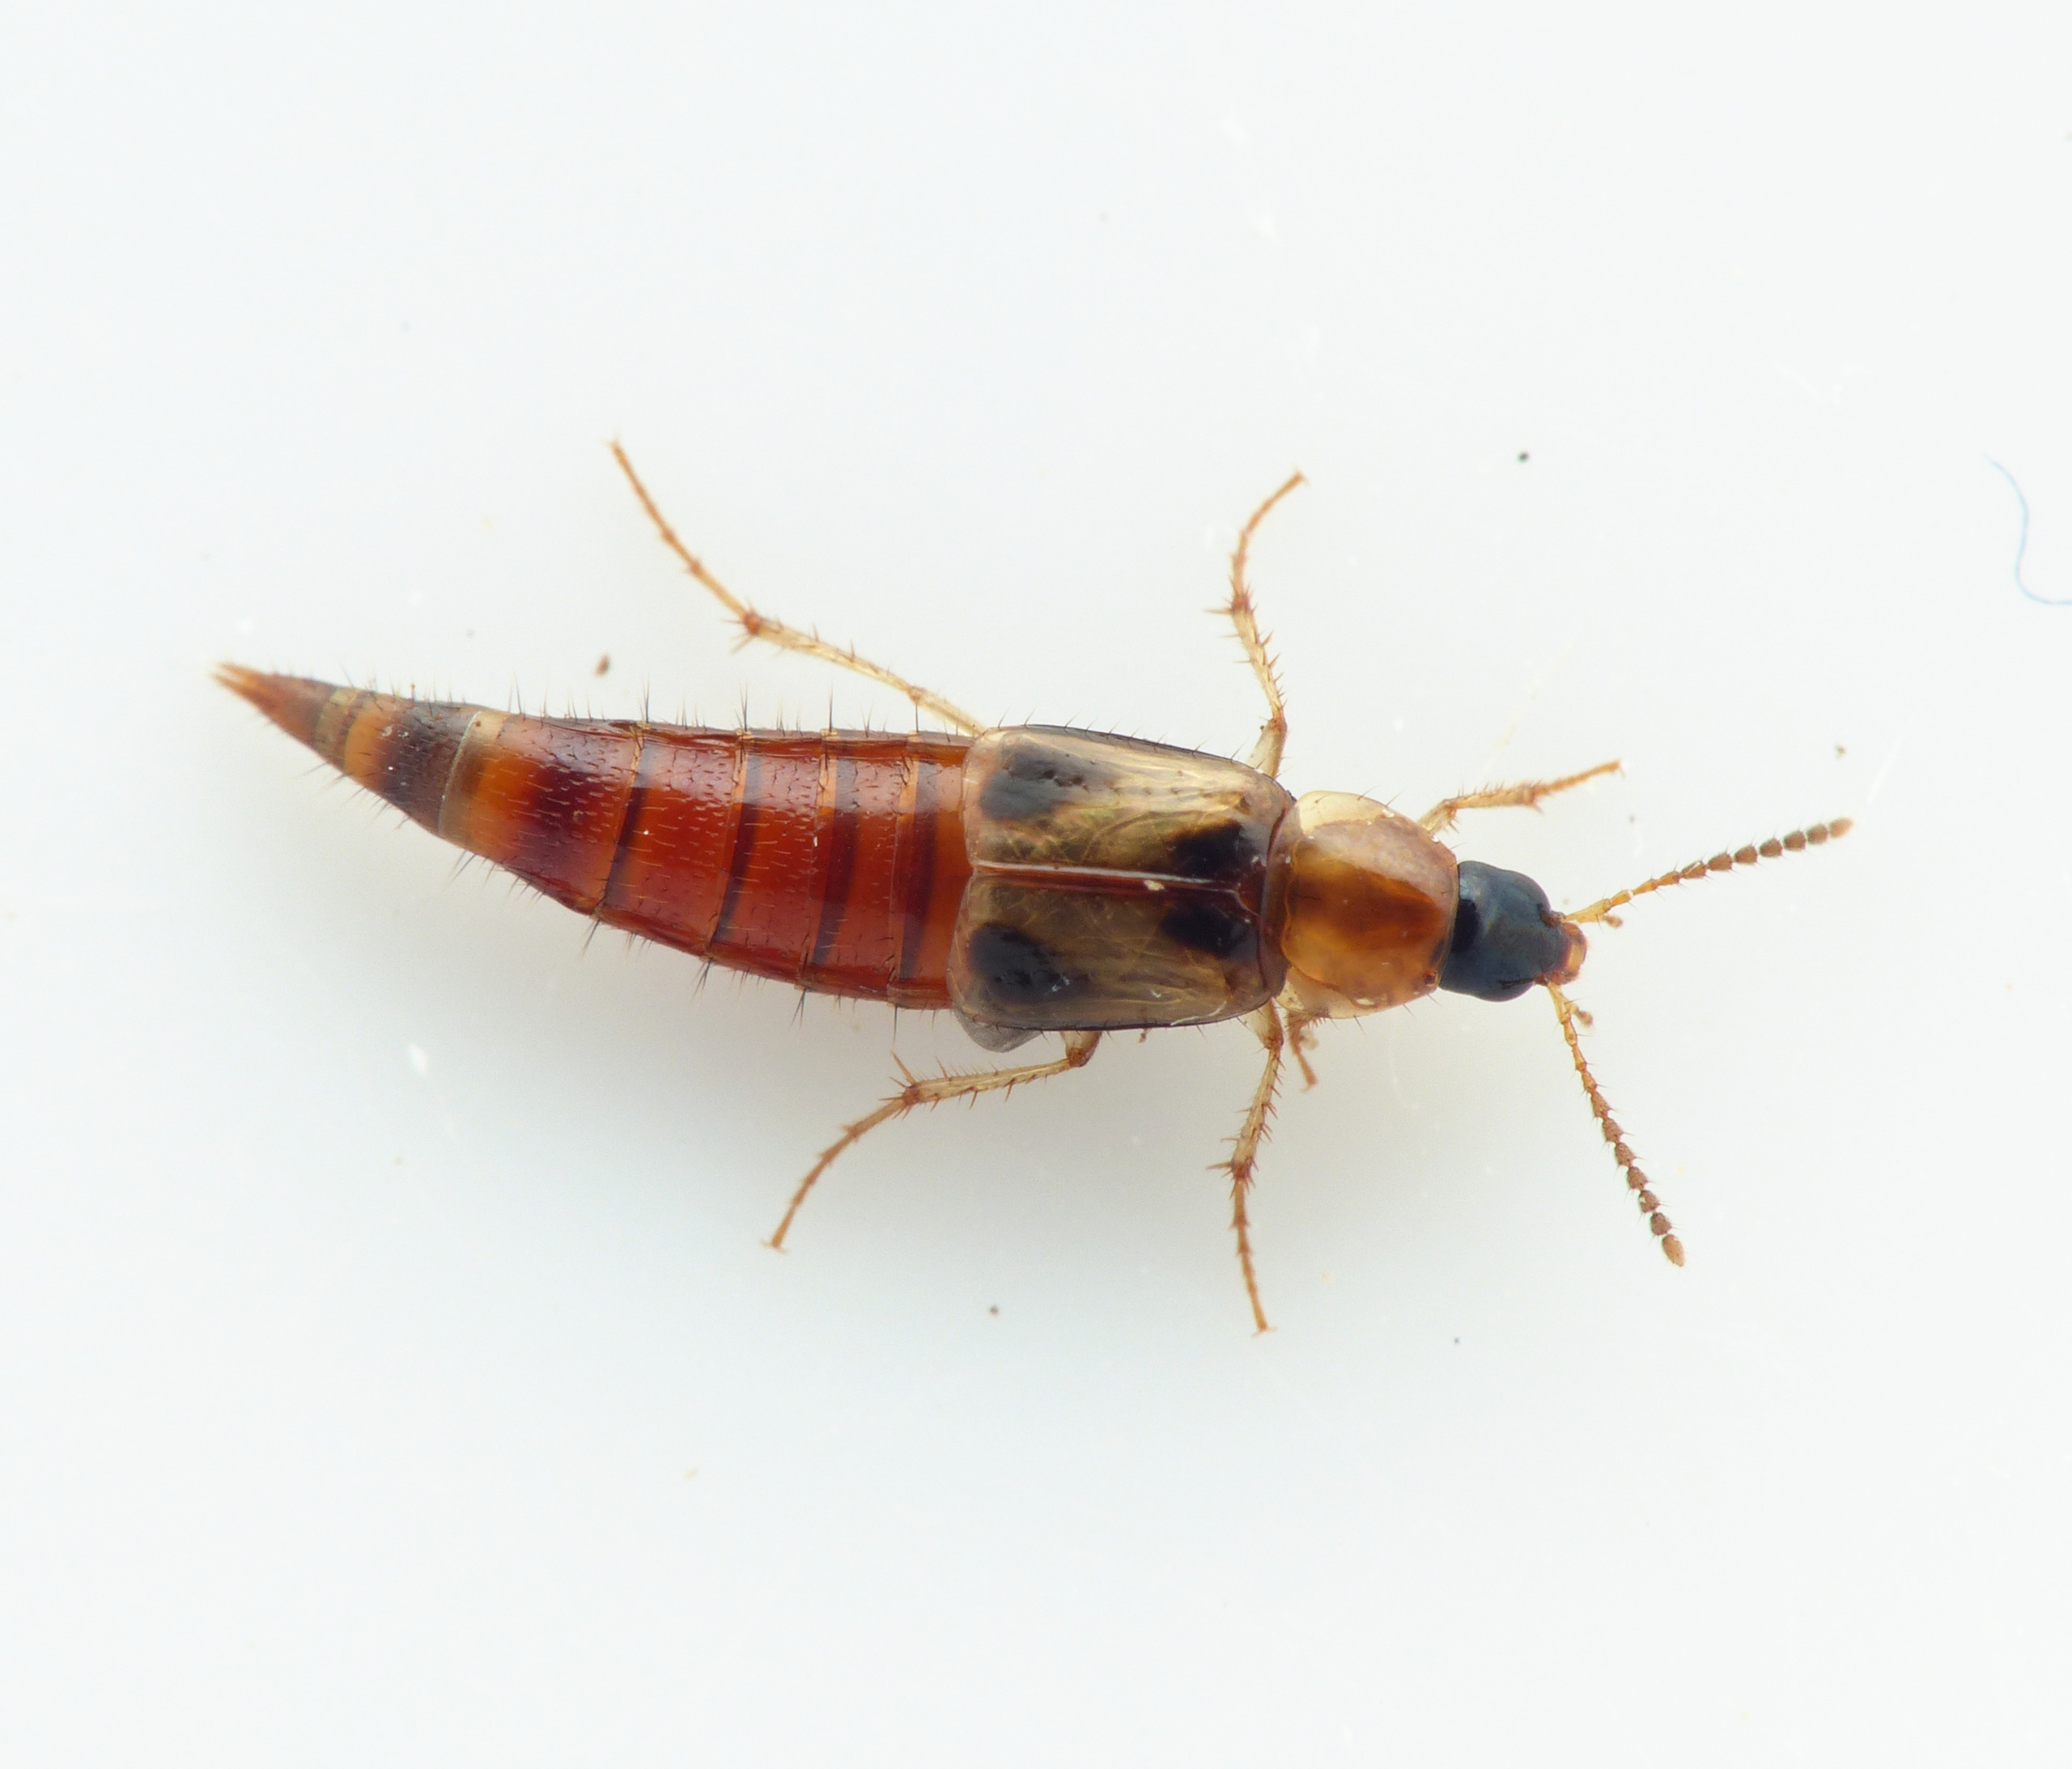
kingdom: Animalia
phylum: Arthropoda
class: Insecta
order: Coleoptera
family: Staphylinidae
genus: Lordithon
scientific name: Lordithon trinotatus
